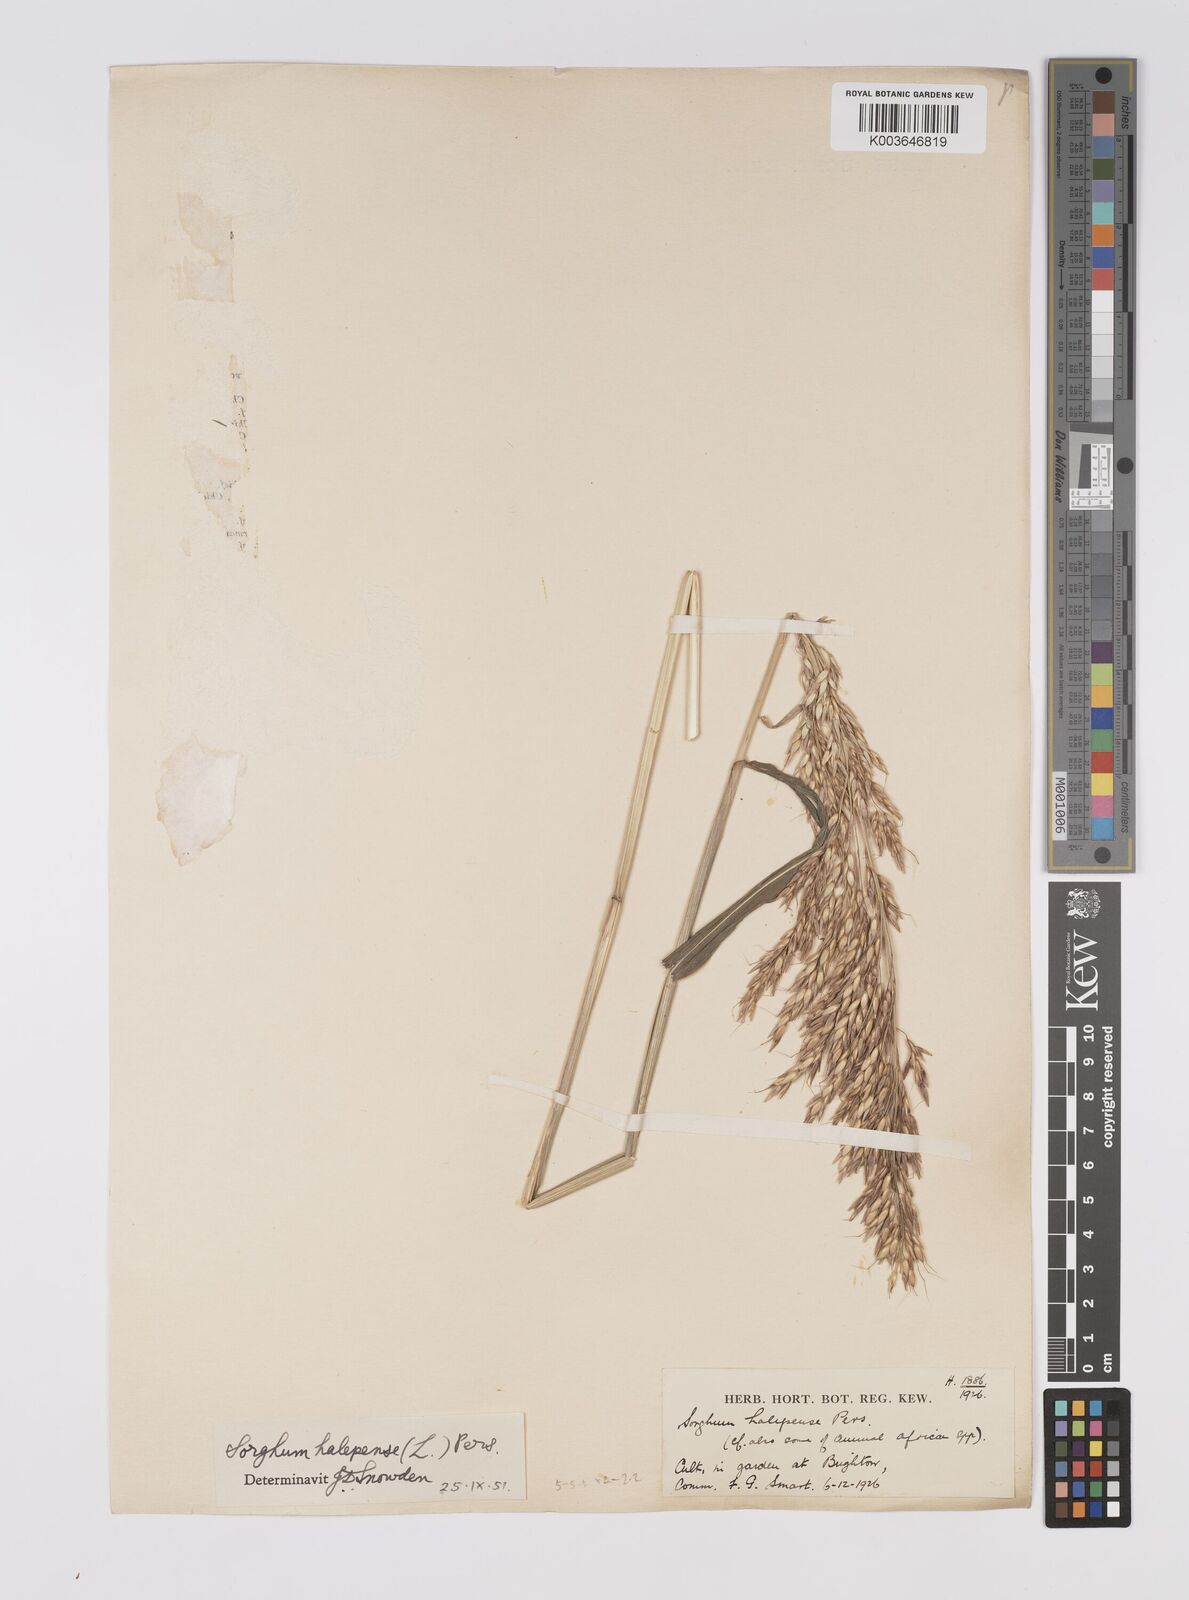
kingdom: Plantae
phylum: Tracheophyta
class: Liliopsida
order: Poales
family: Poaceae
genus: Sorghum
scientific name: Sorghum halepense
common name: Johnson-grass
